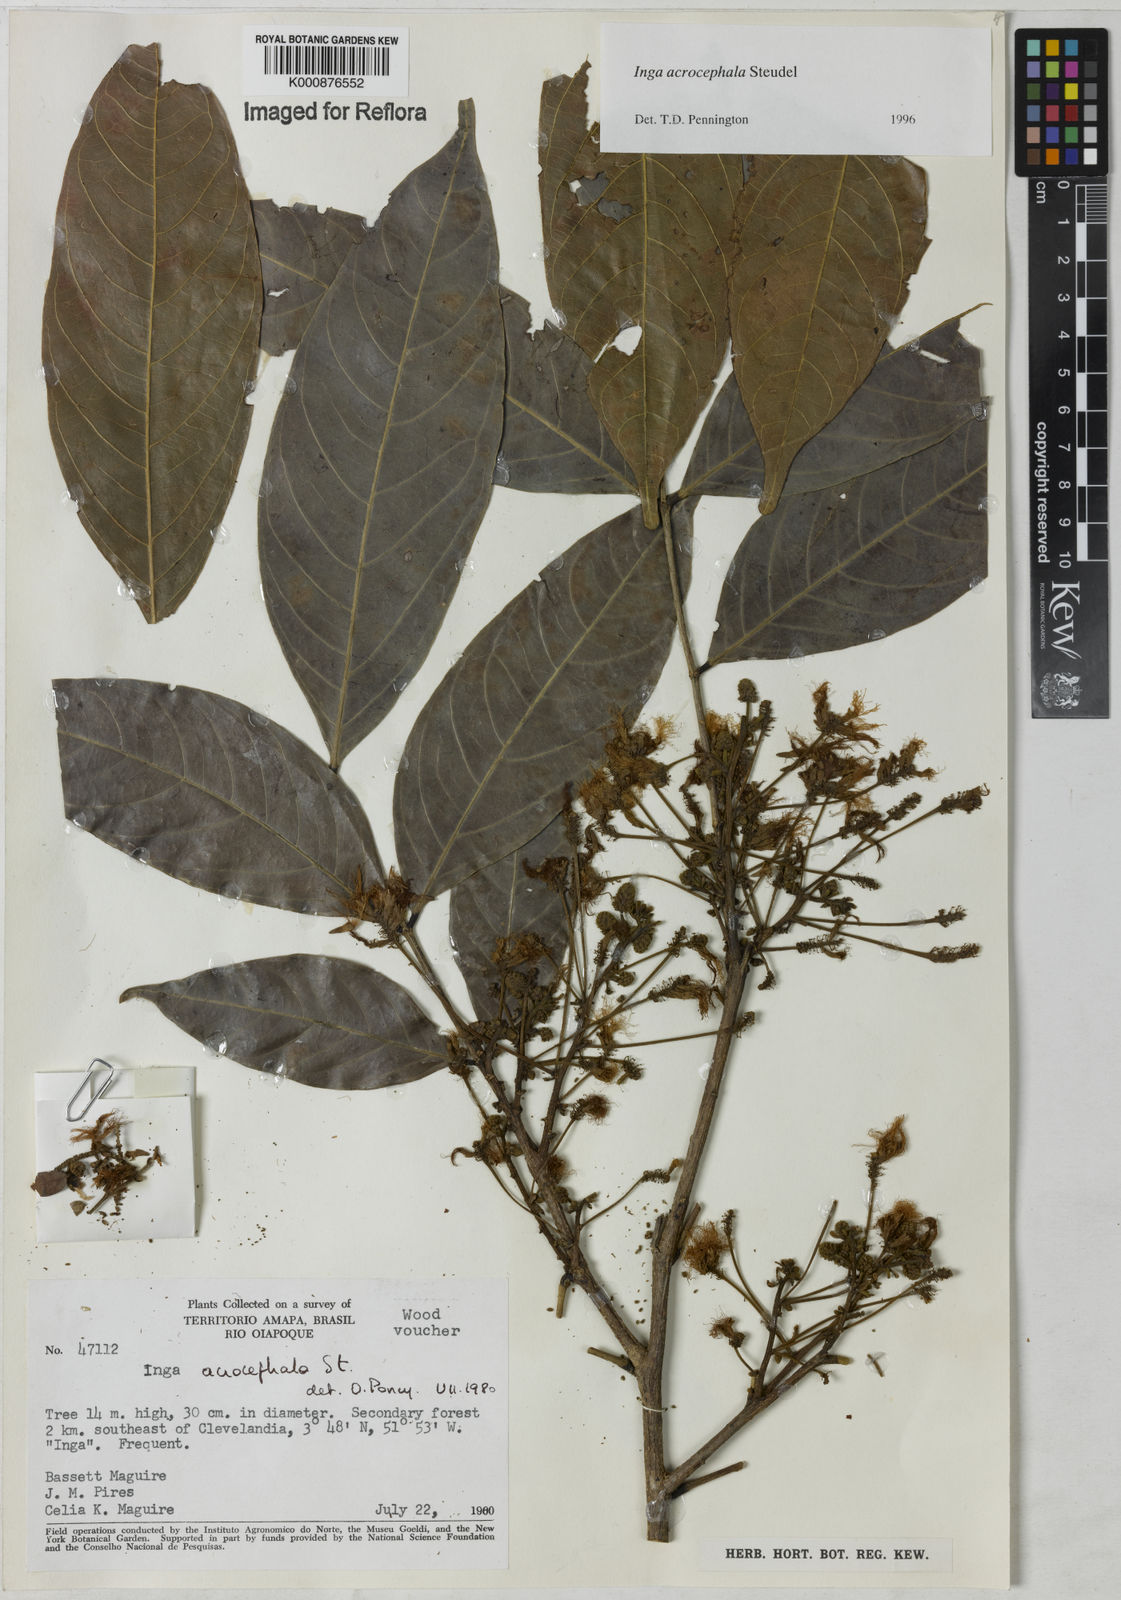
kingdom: Plantae
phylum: Tracheophyta
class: Magnoliopsida
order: Fabales
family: Fabaceae
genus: Inga
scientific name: Inga acrocephala
